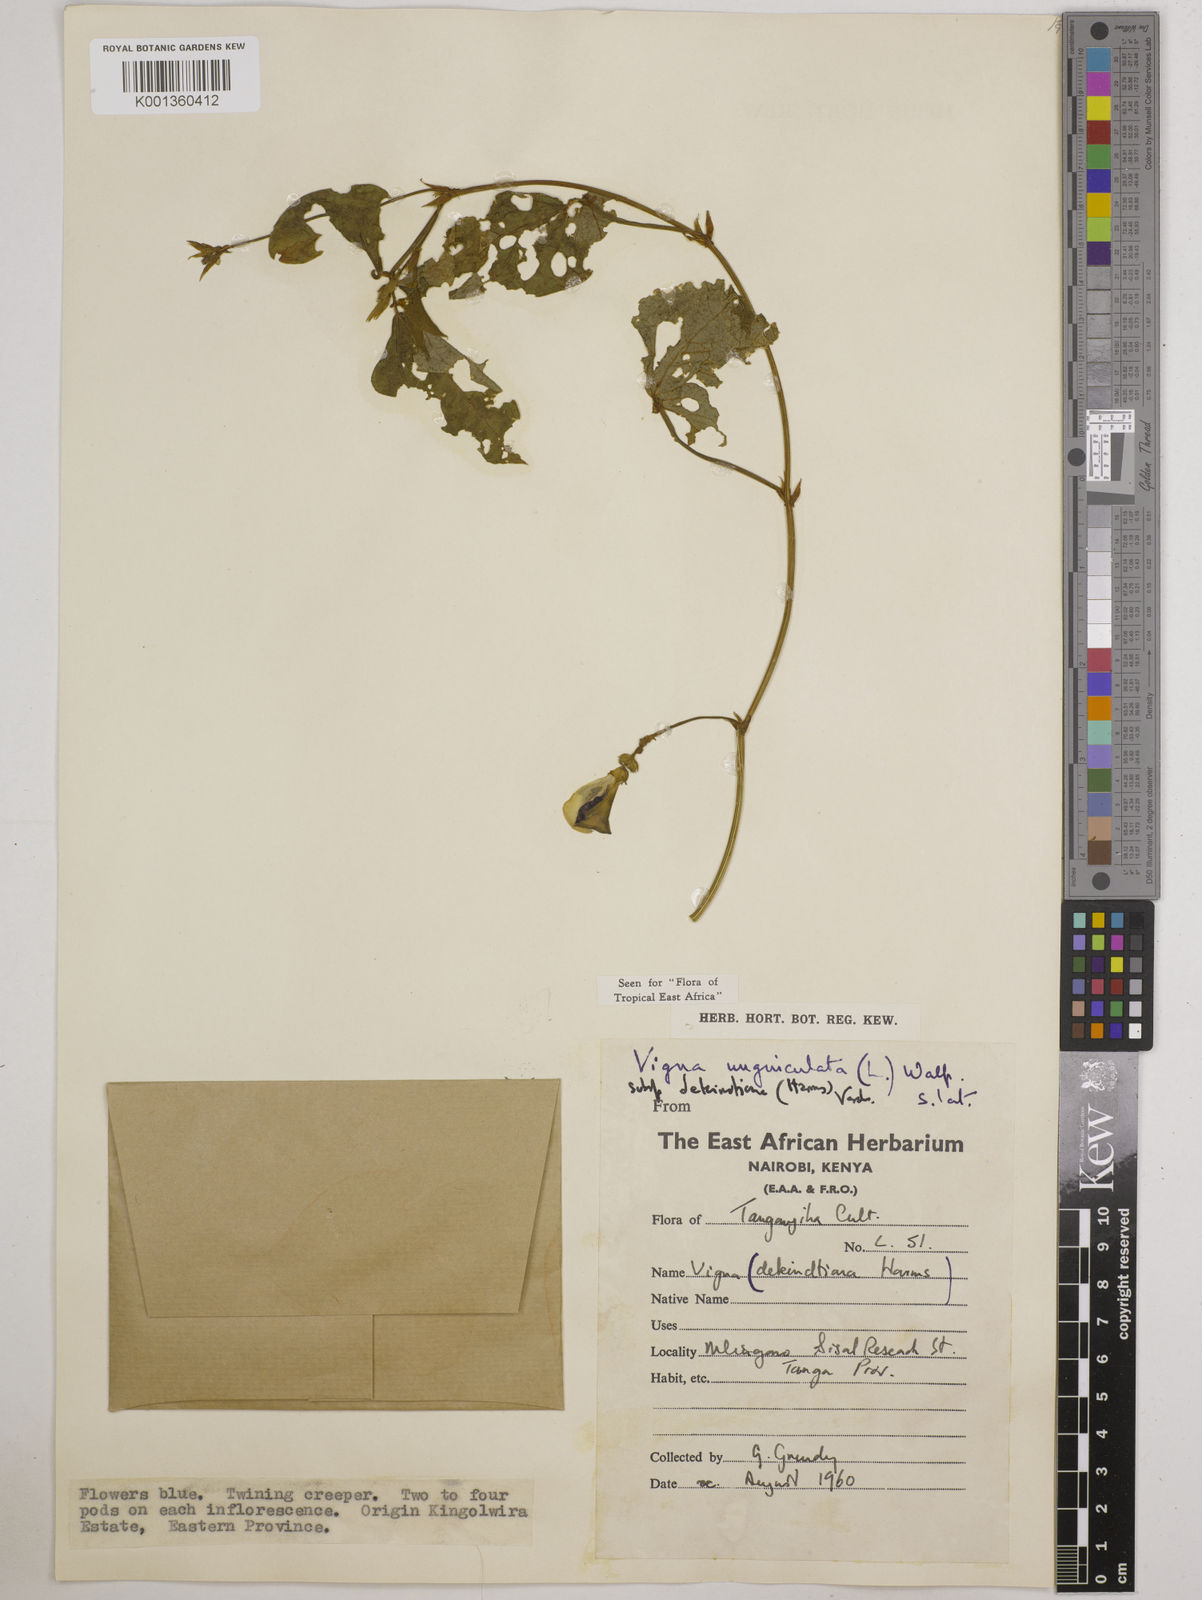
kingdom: Plantae
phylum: Tracheophyta
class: Magnoliopsida
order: Fabales
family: Fabaceae
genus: Vigna
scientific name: Vigna
